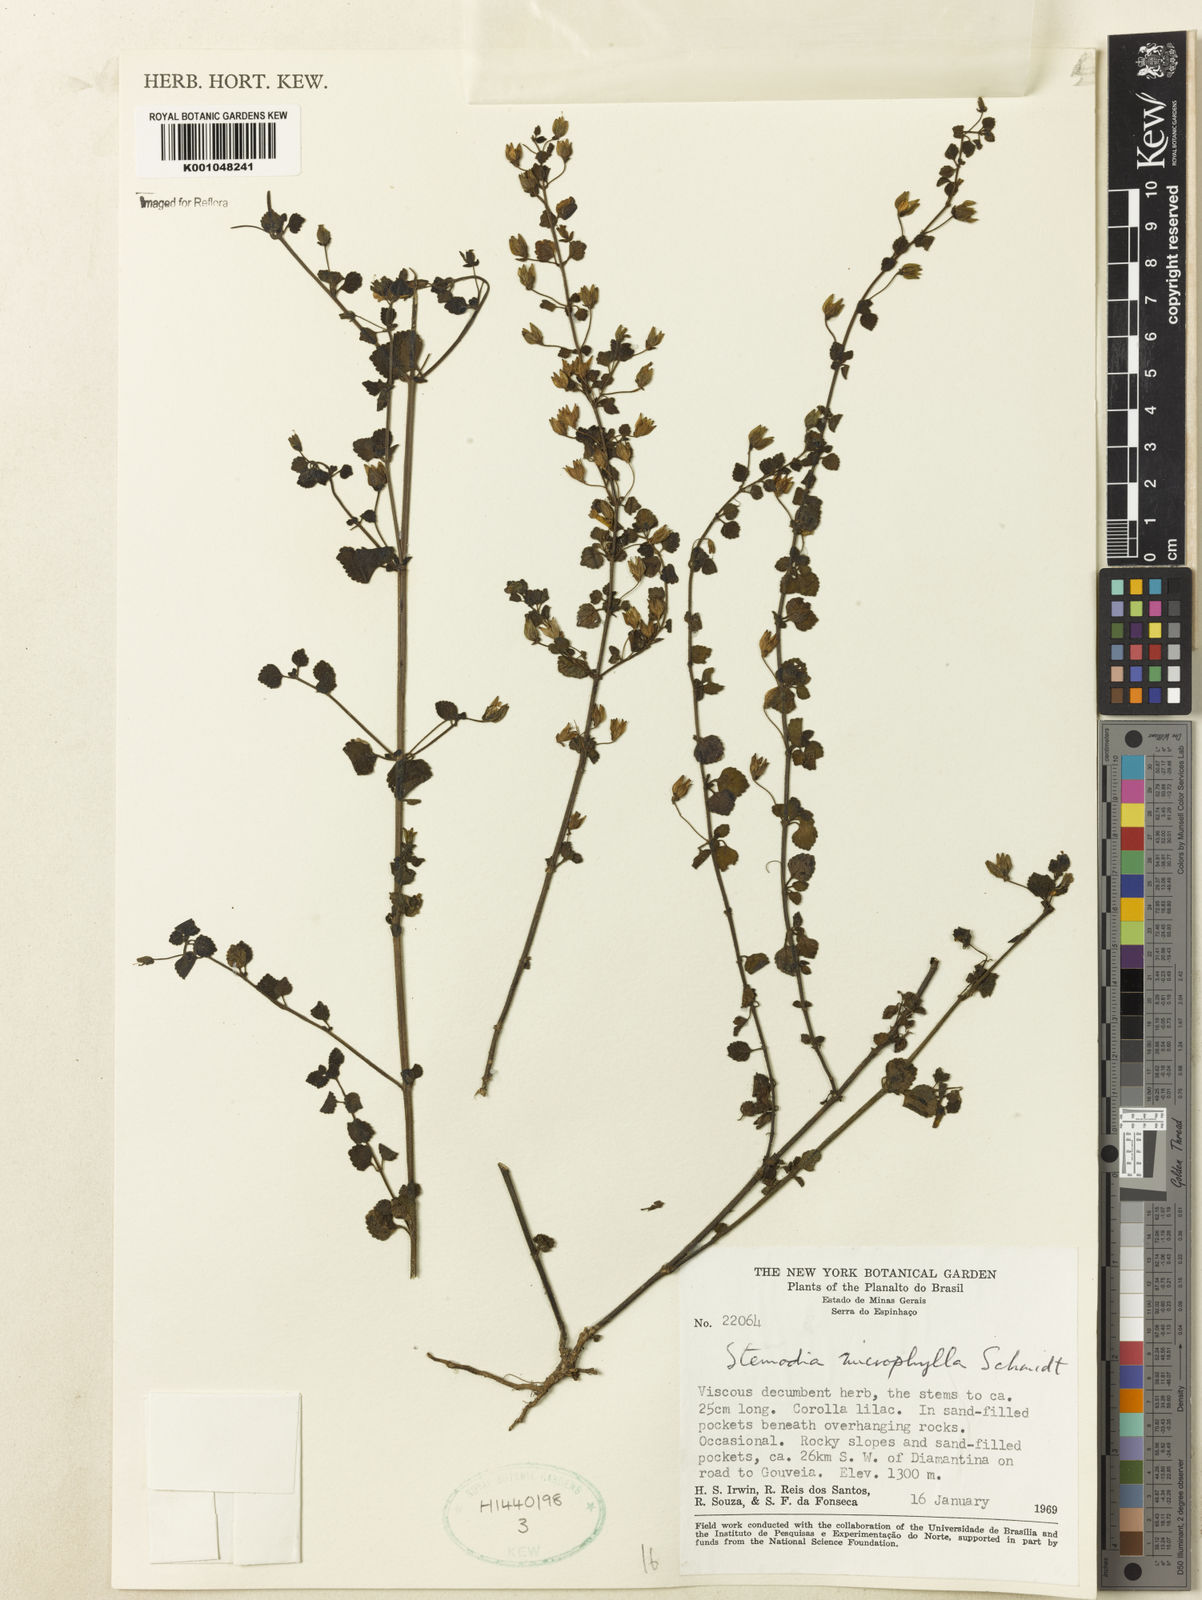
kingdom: Plantae
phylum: Tracheophyta
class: Magnoliopsida
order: Lamiales
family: Plantaginaceae
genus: Umbraria
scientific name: Umbraria microphylla
